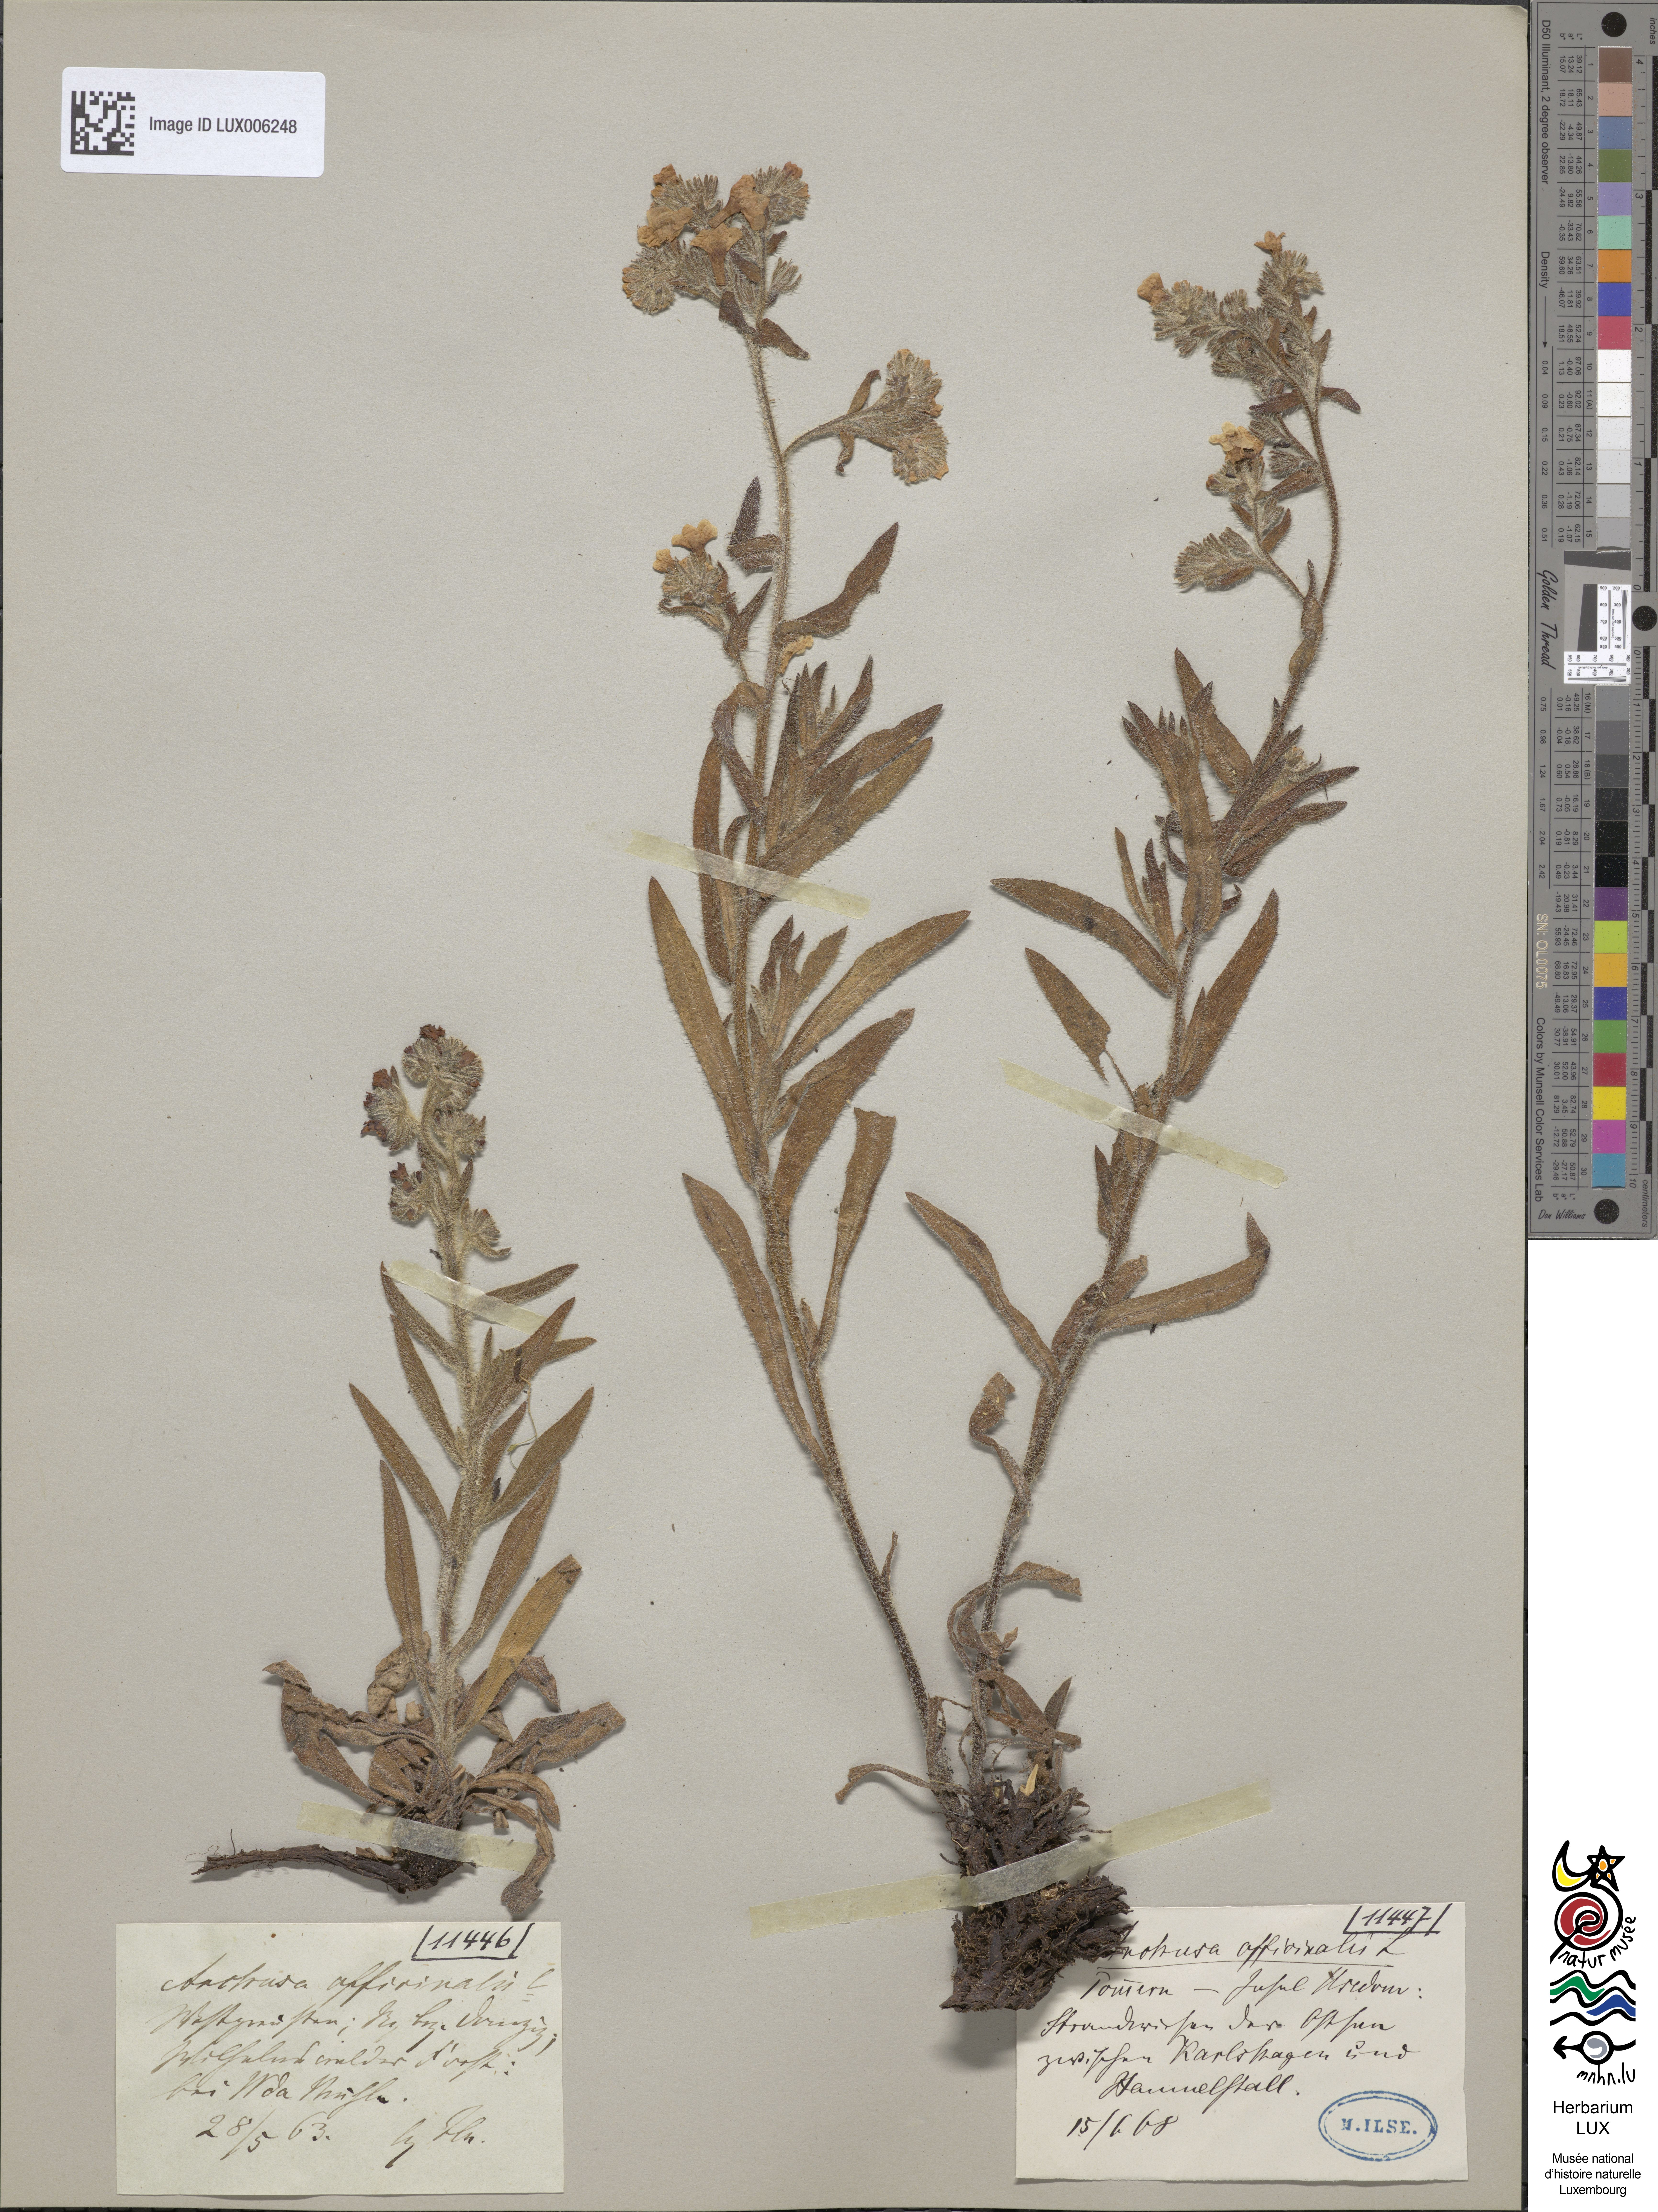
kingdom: Plantae
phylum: Tracheophyta
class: Magnoliopsida
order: Boraginales
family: Boraginaceae
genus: Anchusa
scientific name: Anchusa officinalis
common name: Alkanet
